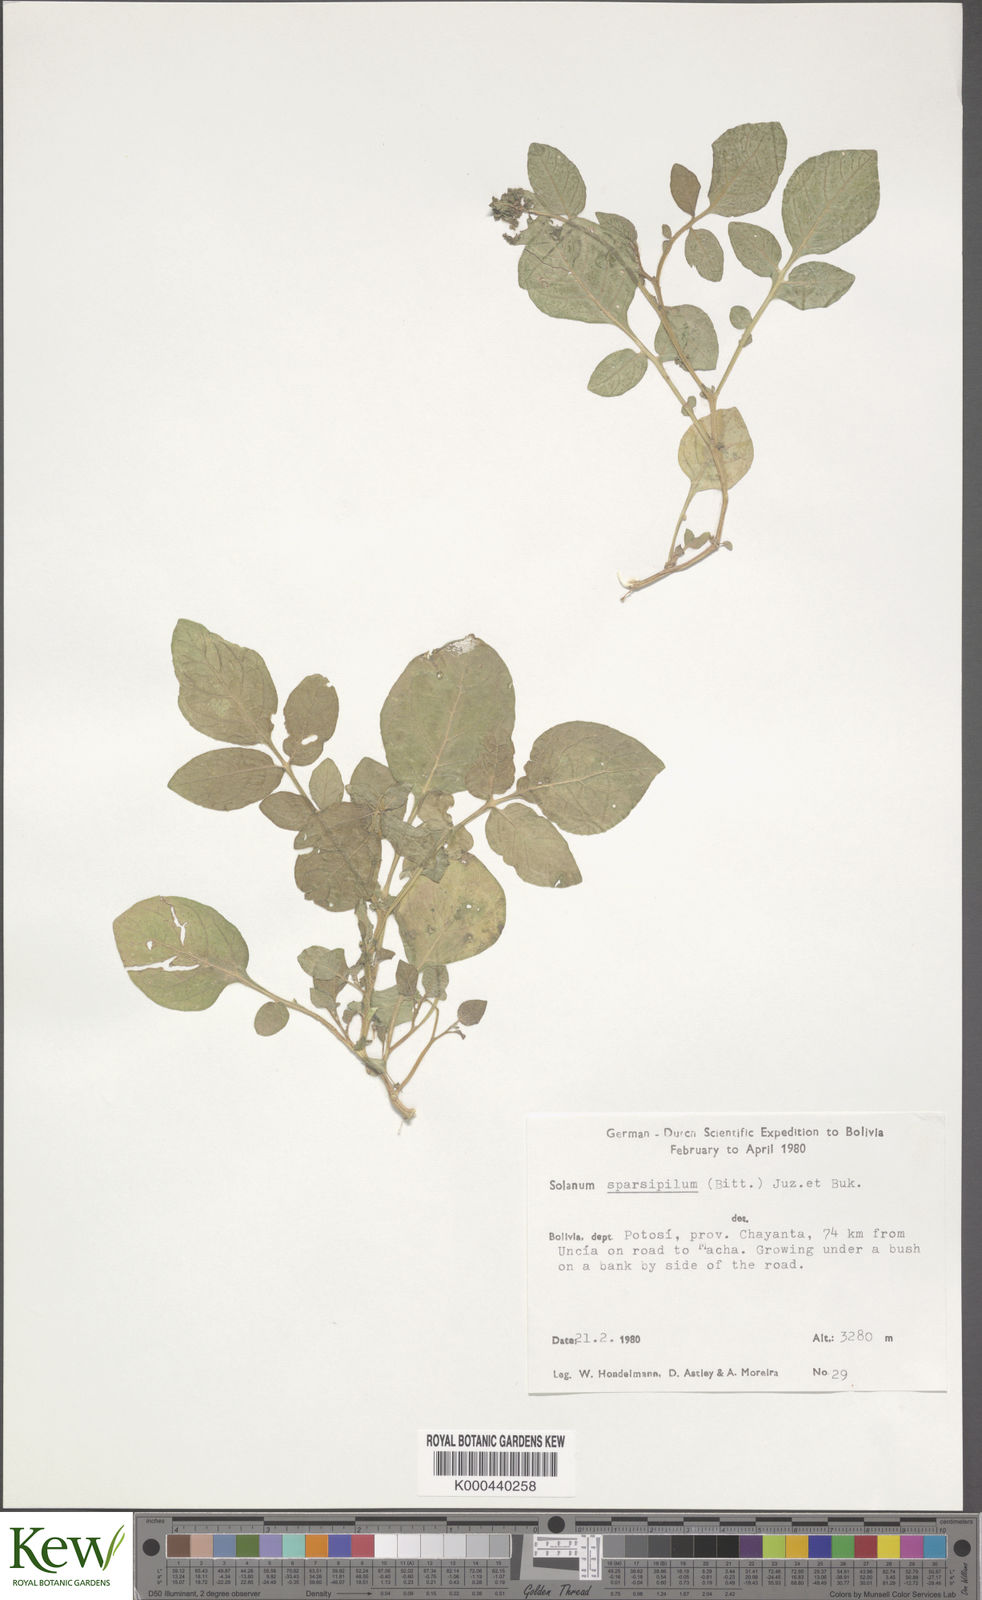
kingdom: Plantae
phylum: Tracheophyta
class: Magnoliopsida
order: Solanales
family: Solanaceae
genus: Solanum
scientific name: Solanum brevicaule
